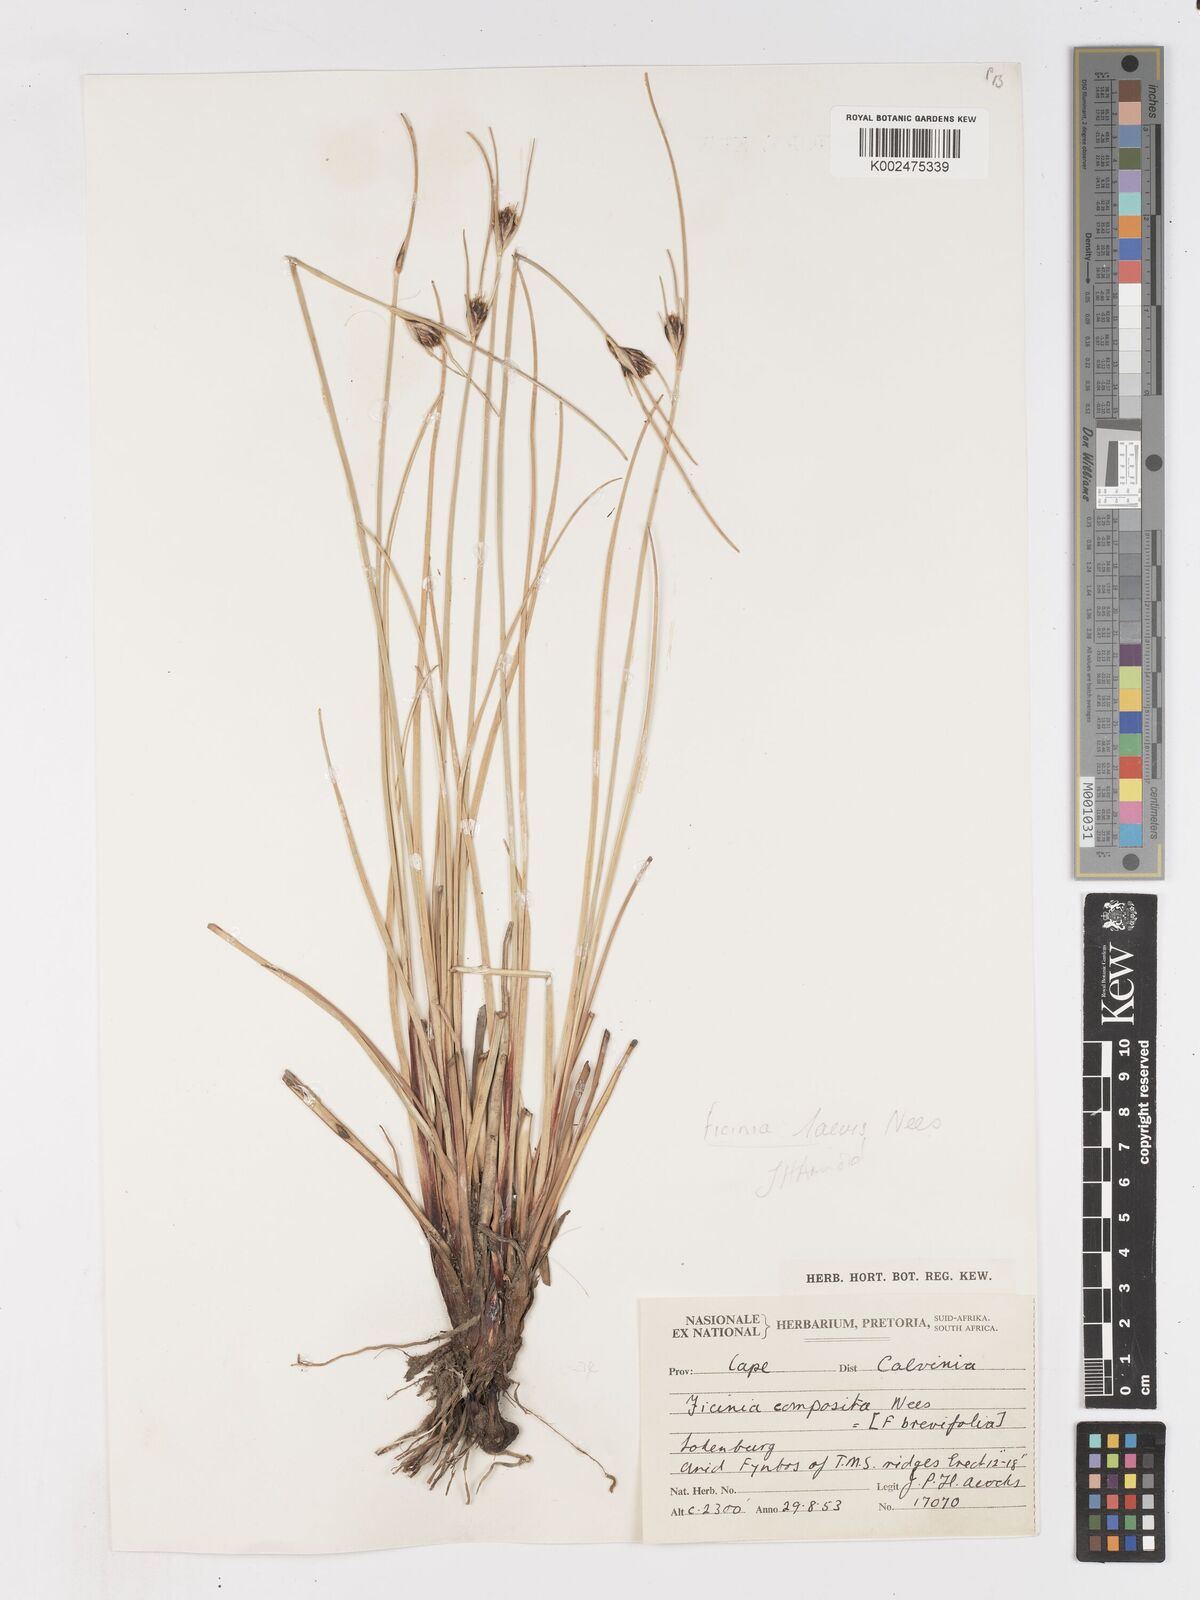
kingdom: Plantae
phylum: Tracheophyta
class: Liliopsida
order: Poales
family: Cyperaceae
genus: Ficinia
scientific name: Ficinia laevis
